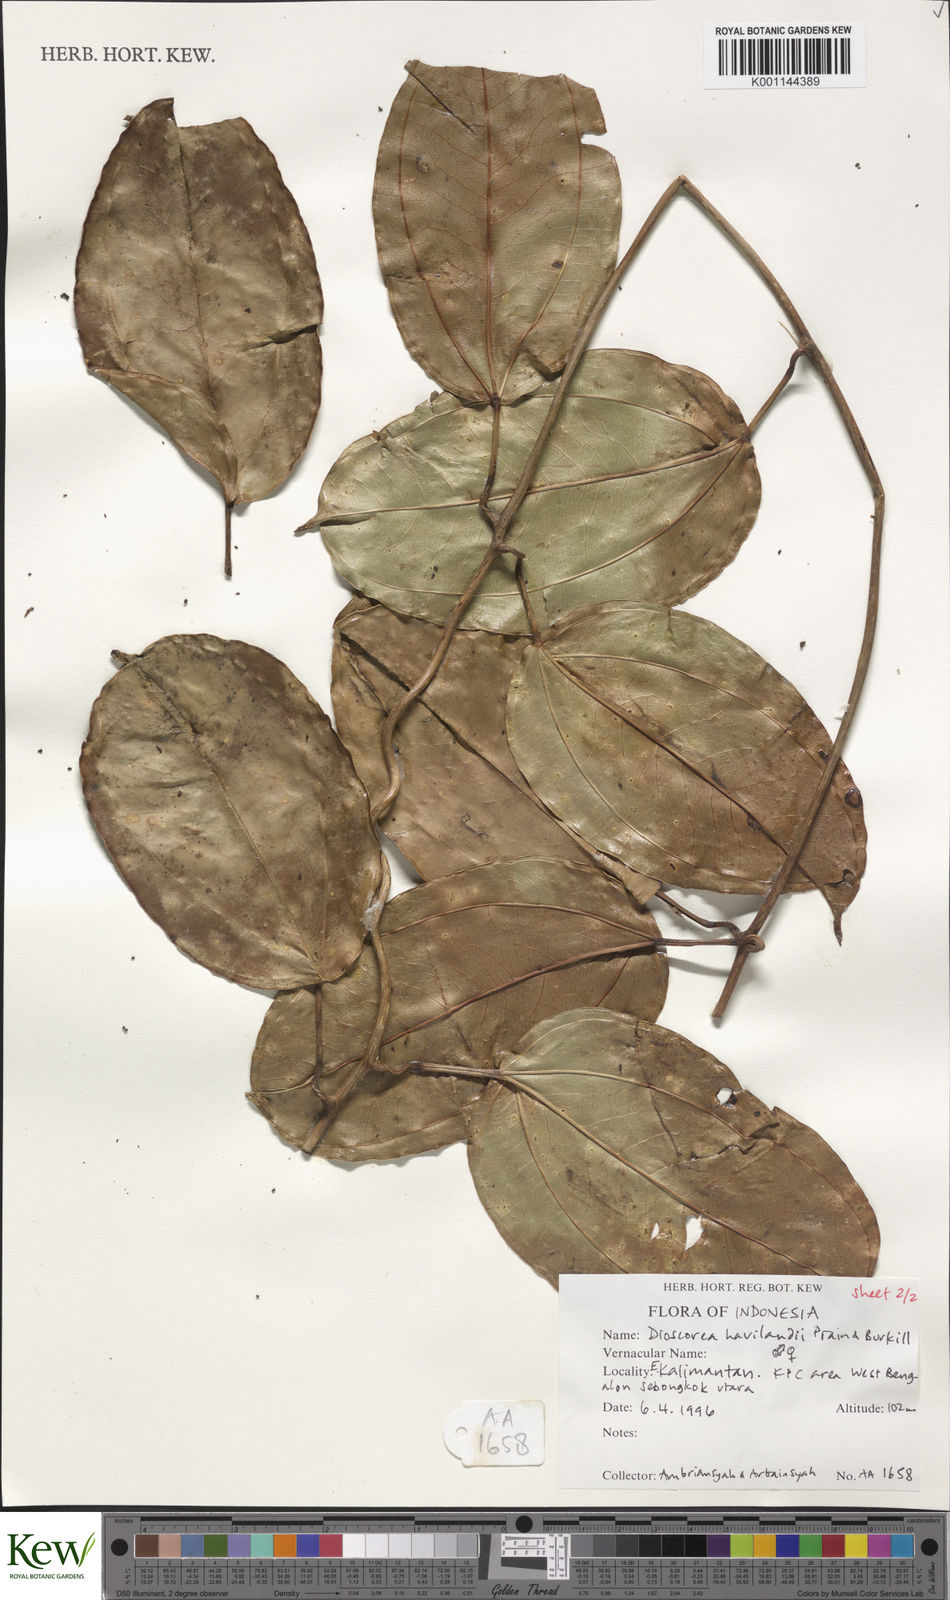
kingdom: Plantae
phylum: Tracheophyta
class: Liliopsida
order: Dioscoreales
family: Dioscoreaceae
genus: Dioscorea
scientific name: Dioscorea havilandii
